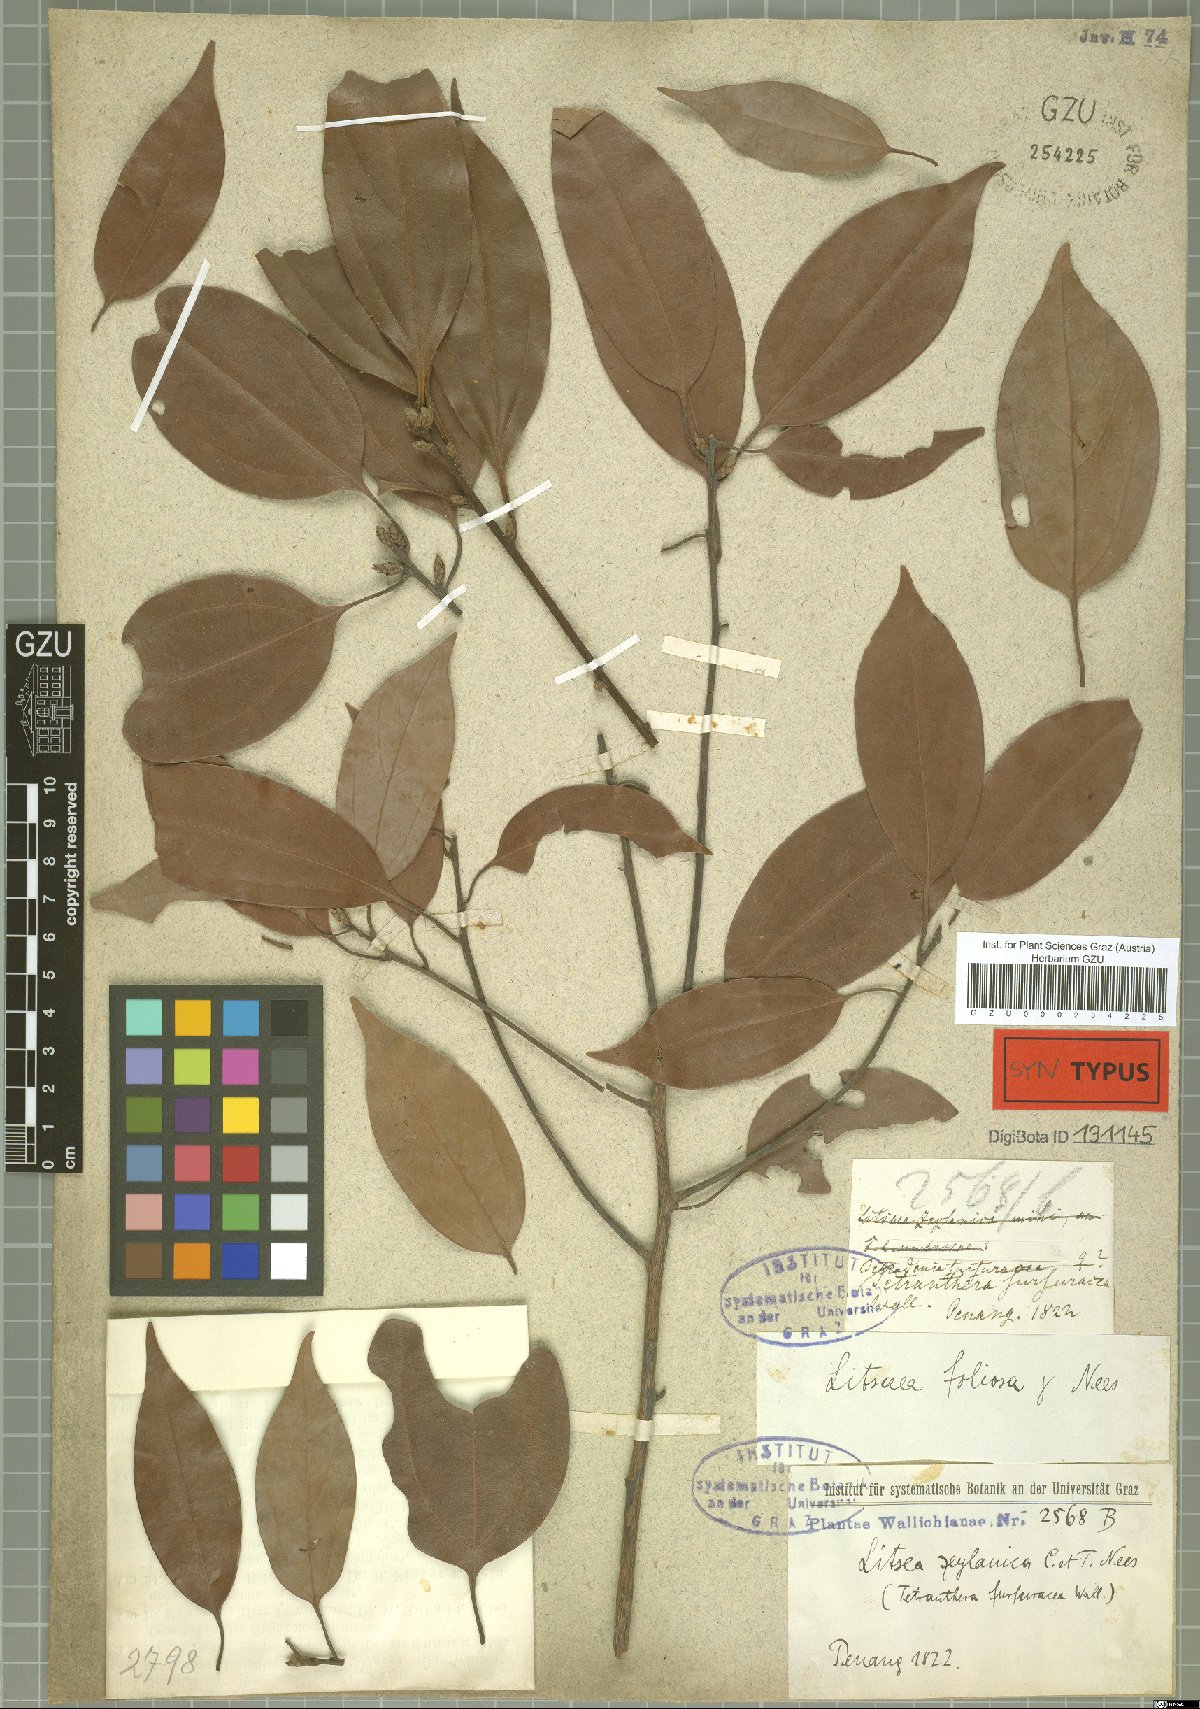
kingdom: Plantae
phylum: Tracheophyta
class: Magnoliopsida
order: Laurales
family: Lauraceae
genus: Neolitsea
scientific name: Neolitsea umbrosa
